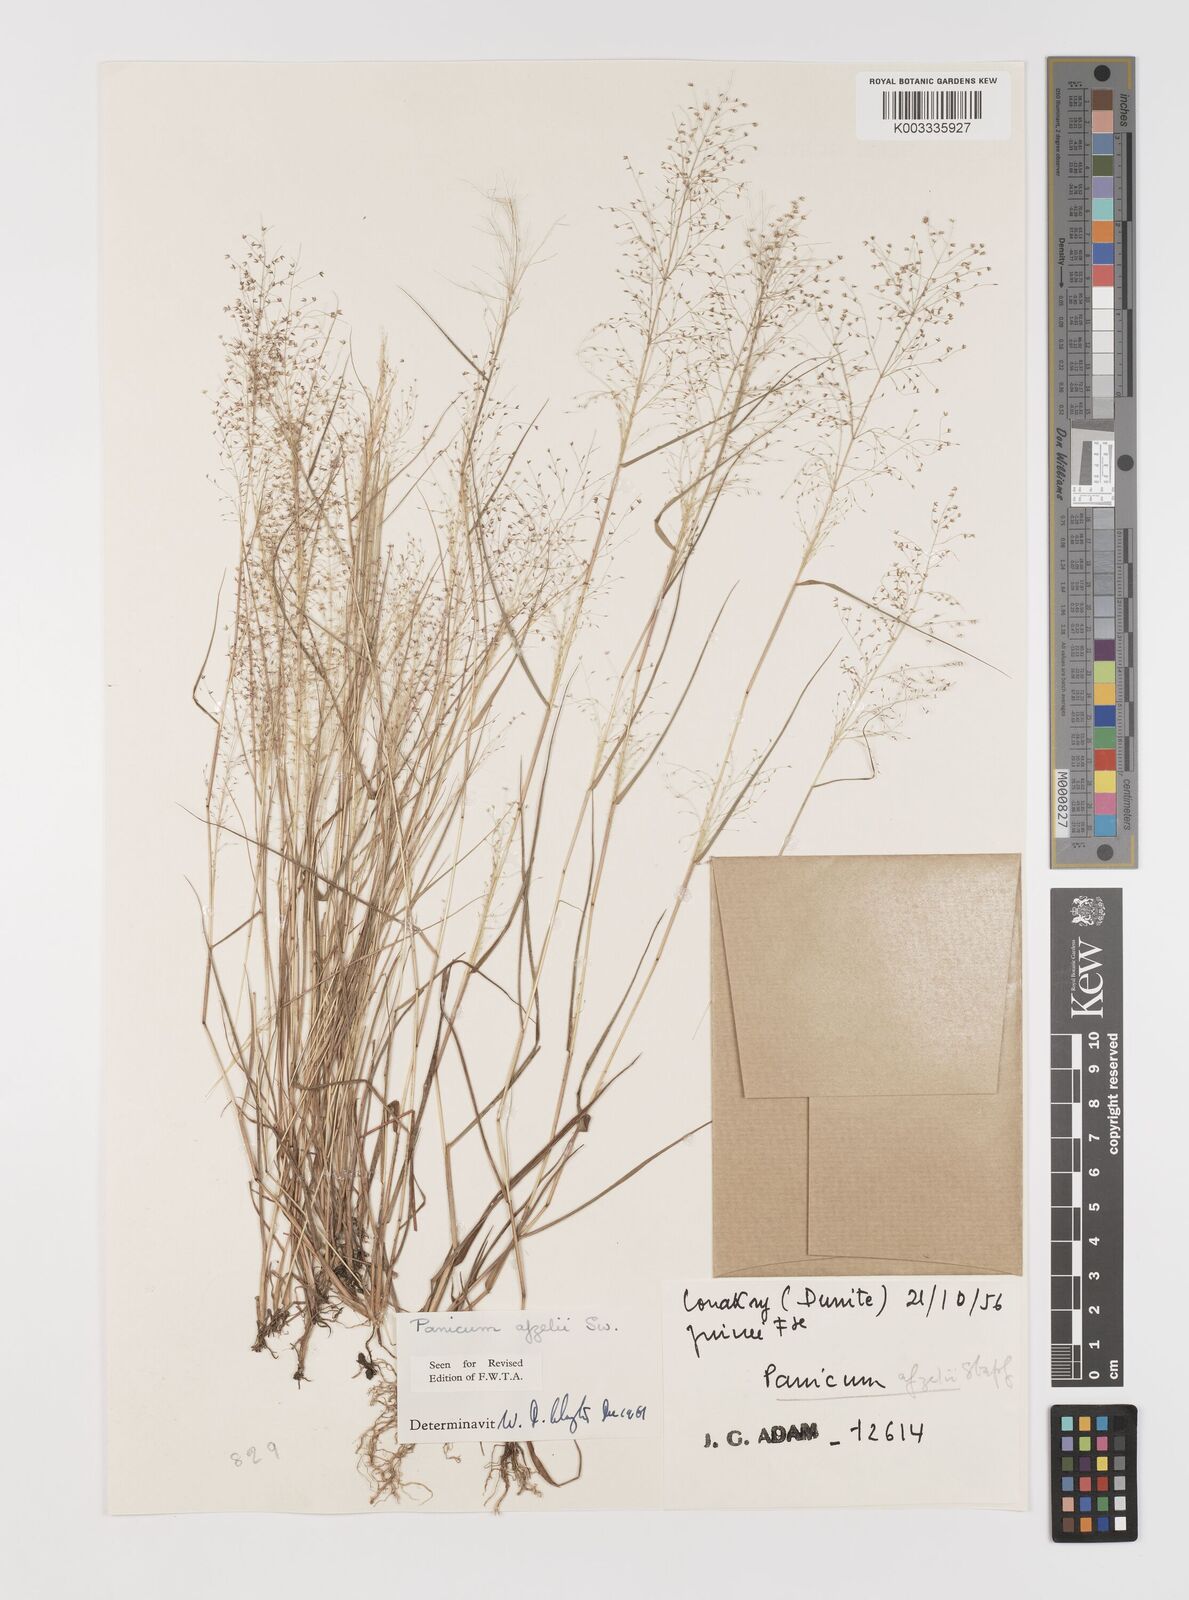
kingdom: Plantae
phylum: Tracheophyta
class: Liliopsida
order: Poales
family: Poaceae
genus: Panicum
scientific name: Panicum afzelii
